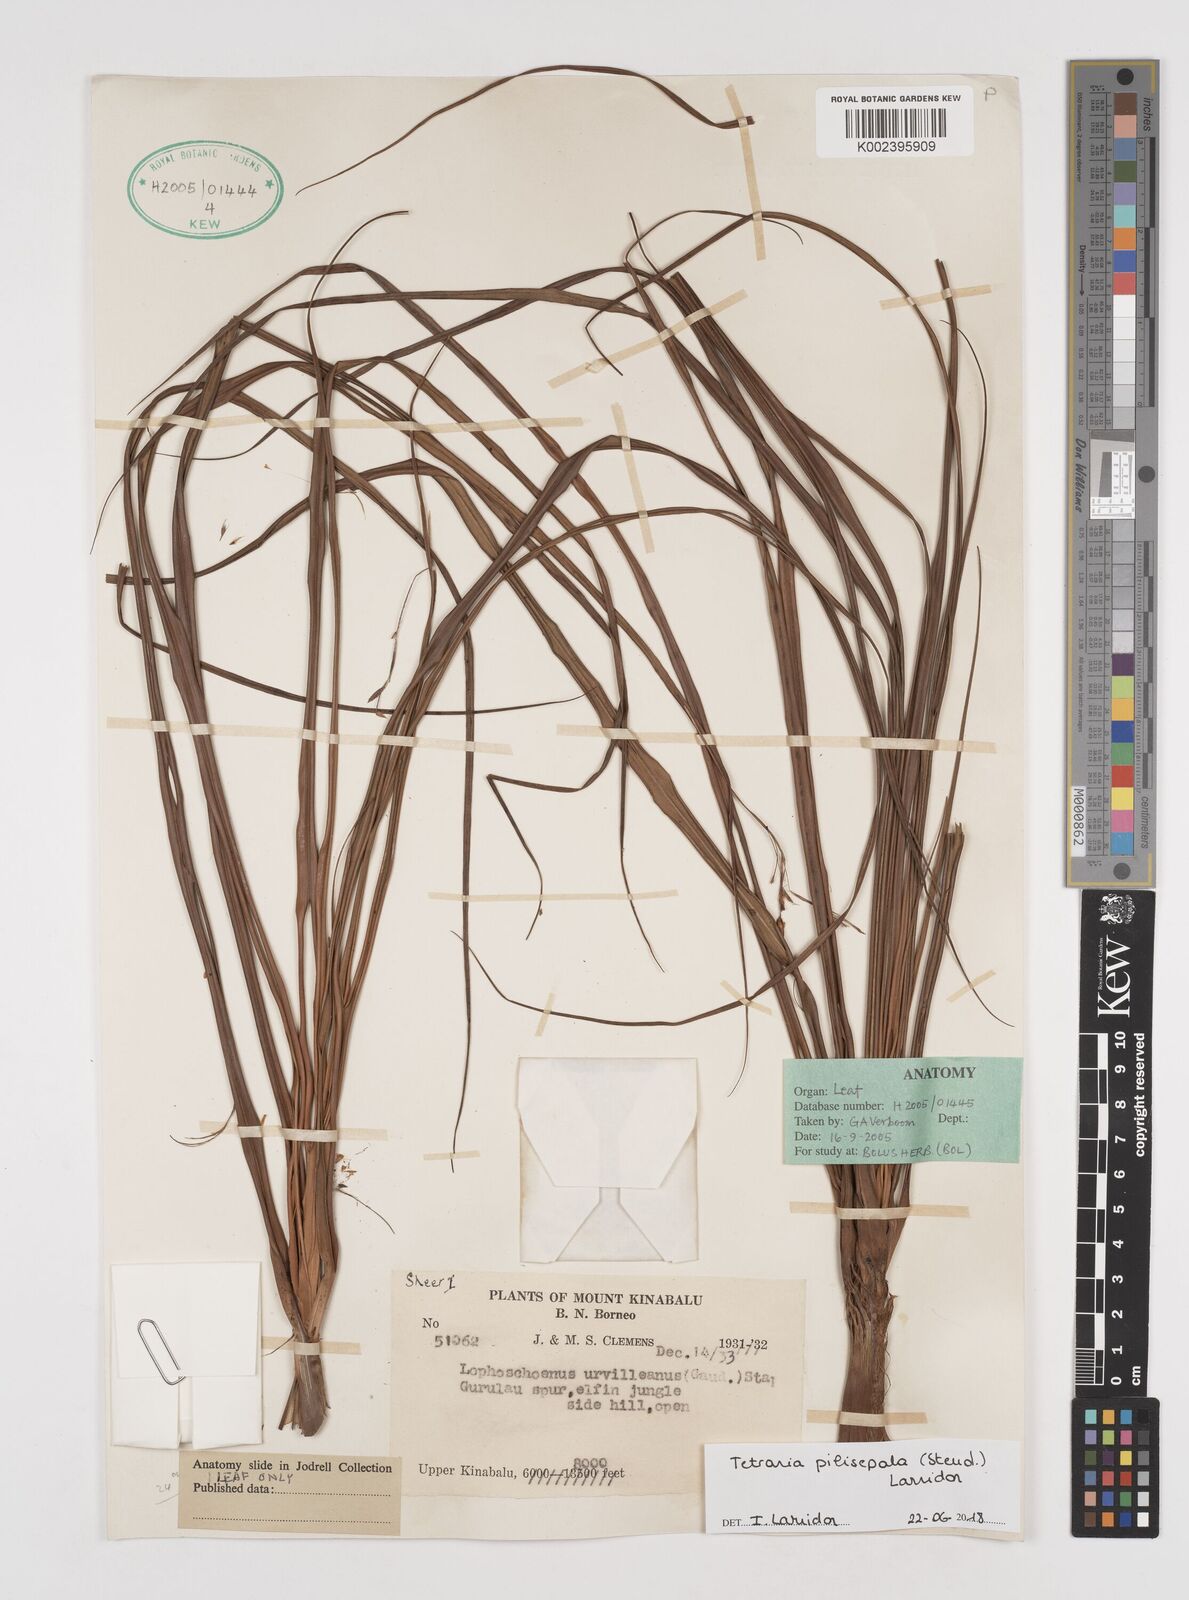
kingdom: Plantae
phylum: Tracheophyta
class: Liliopsida
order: Poales
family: Cyperaceae
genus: Tetraria
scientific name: Tetraria pilisepala
